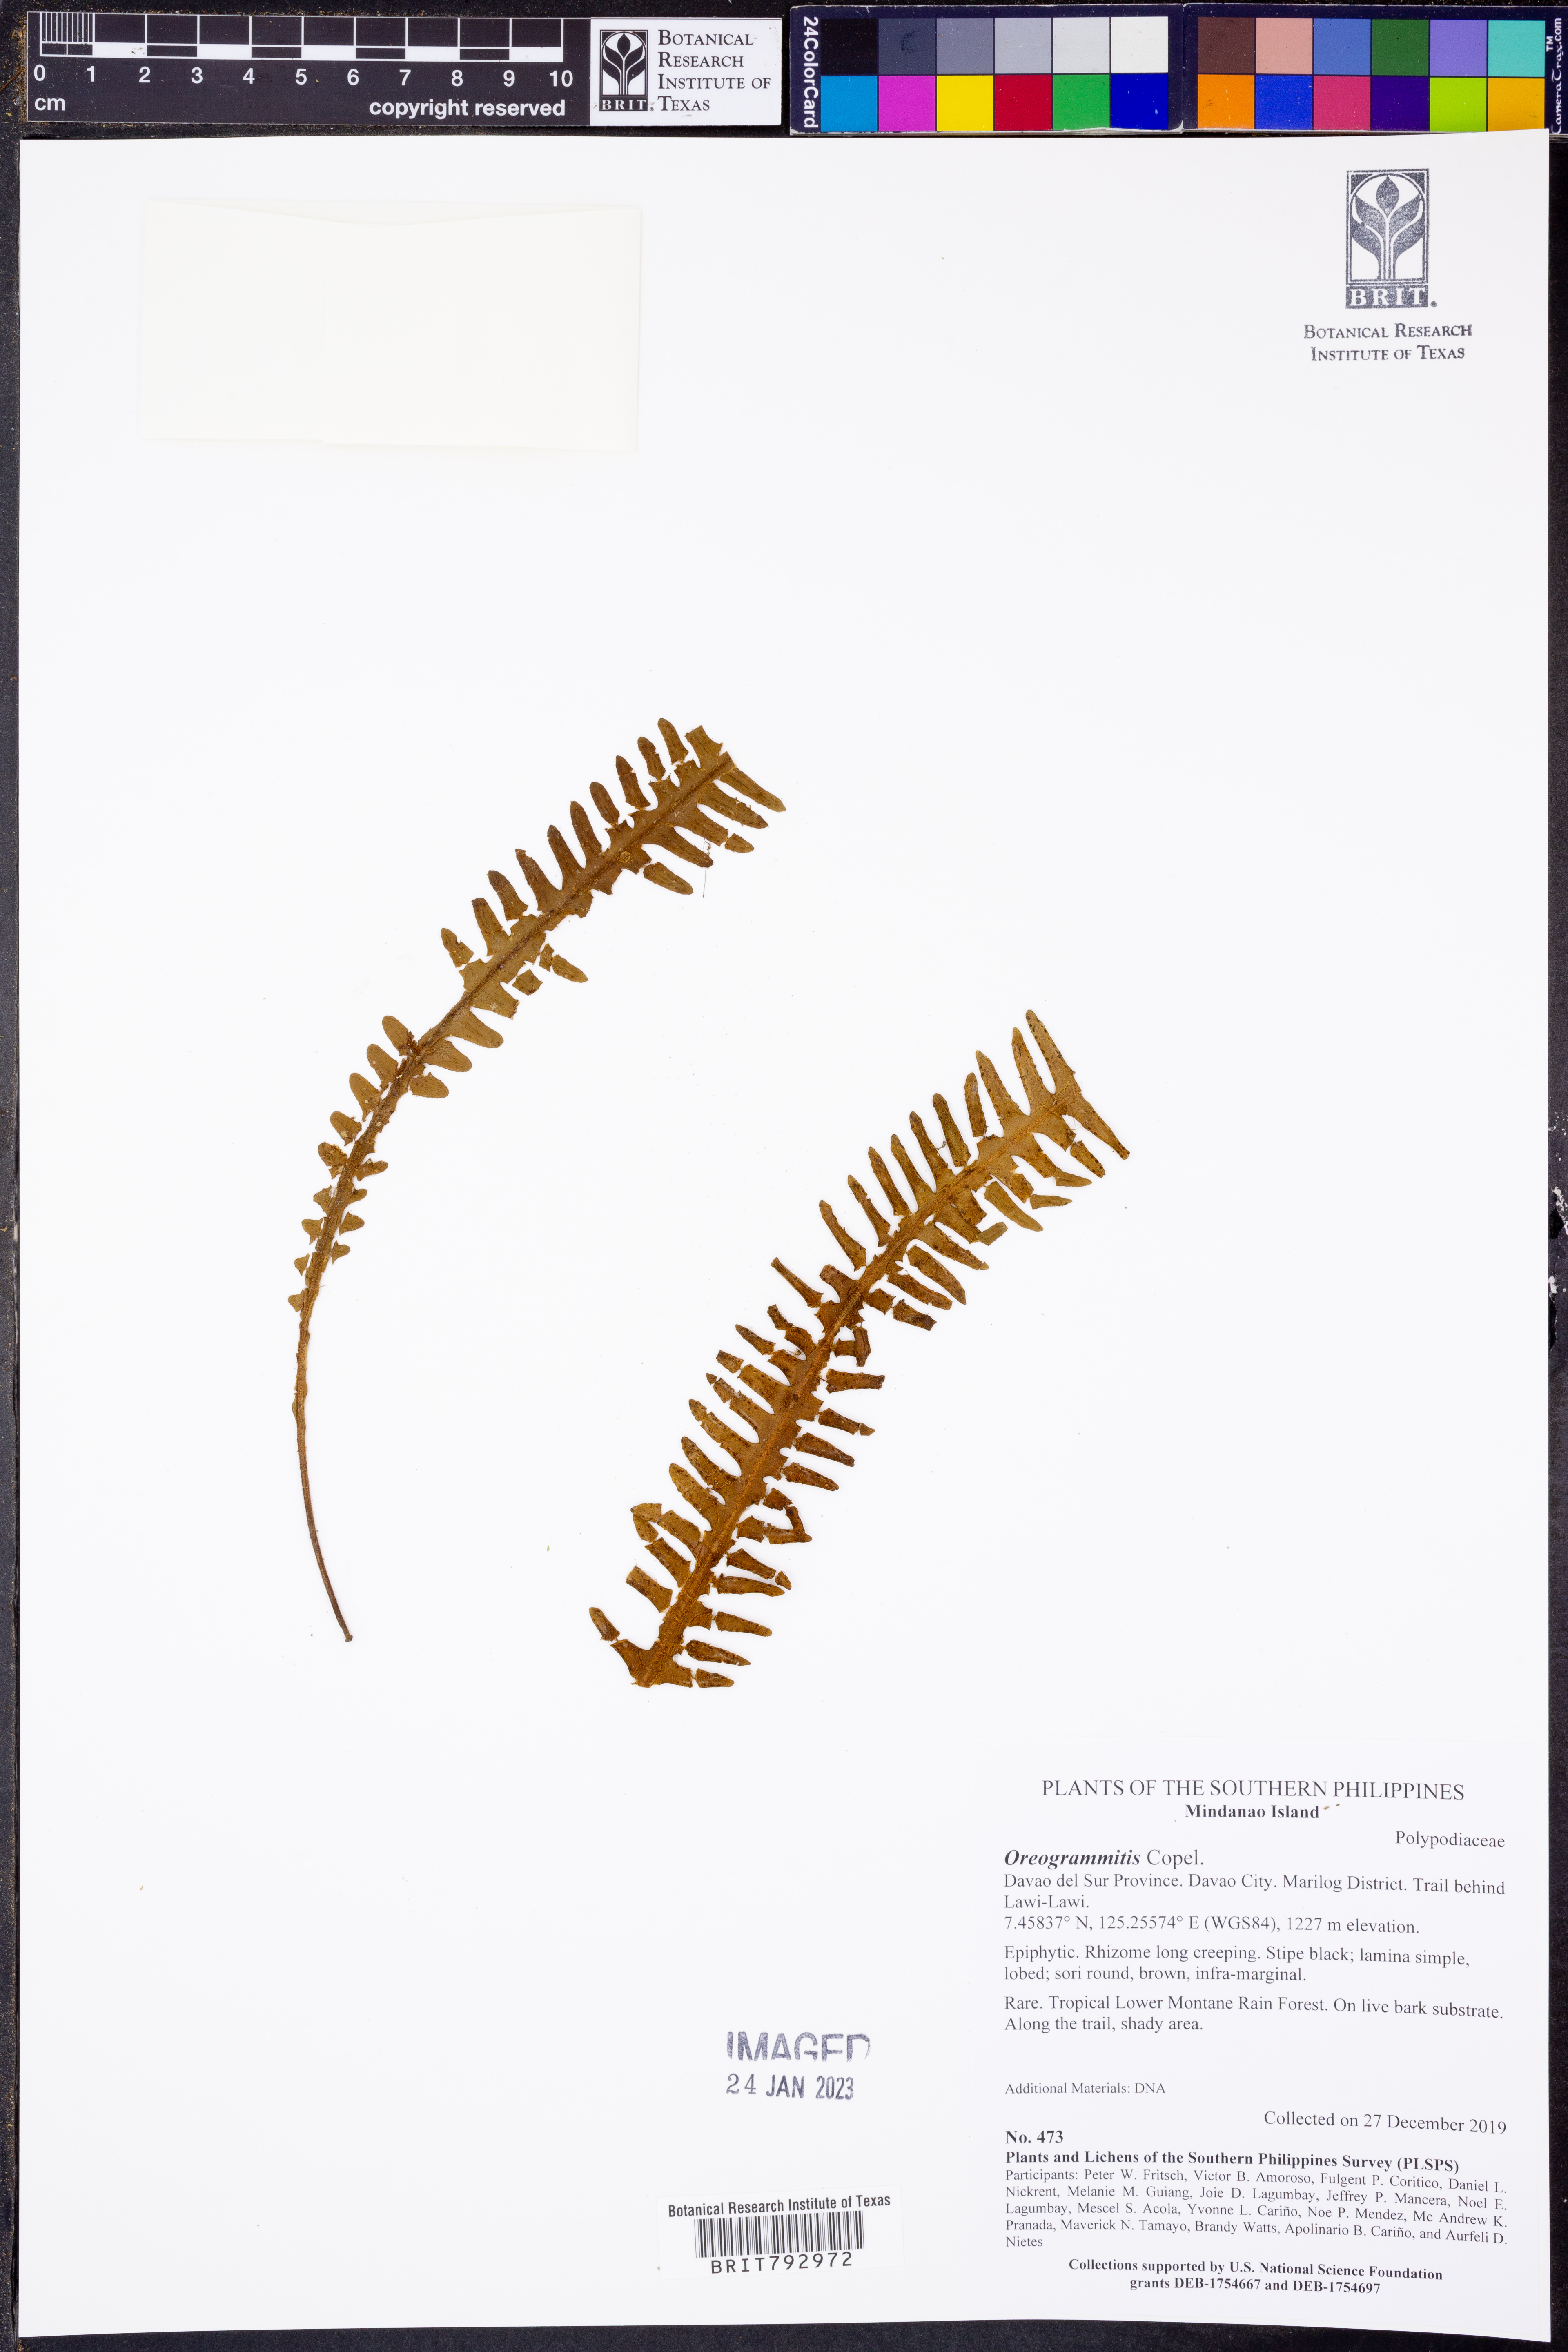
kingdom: Plantae
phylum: Tracheophyta
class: Polypodiopsida
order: Polypodiales
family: Polypodiaceae
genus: Oreogrammitis
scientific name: Oreogrammitis
